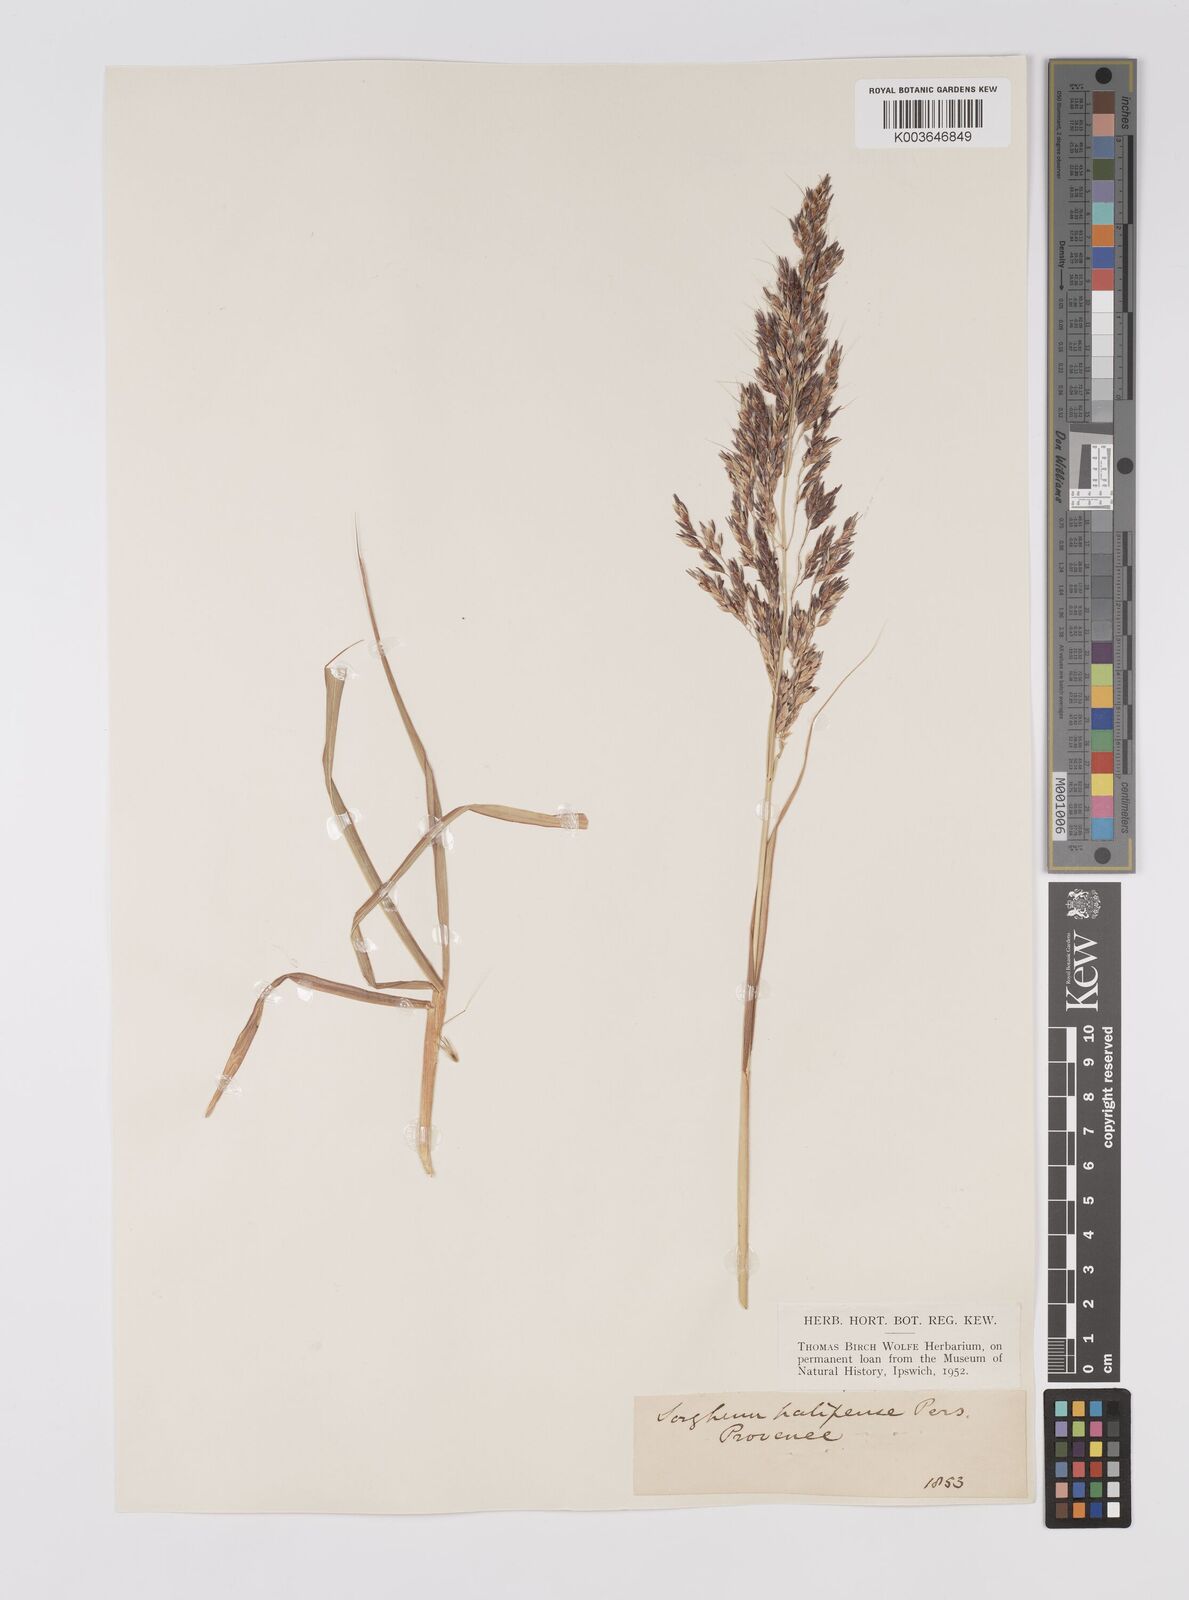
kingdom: Plantae
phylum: Tracheophyta
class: Liliopsida
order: Poales
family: Poaceae
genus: Sorghum
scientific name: Sorghum halepense
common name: Johnson-grass
